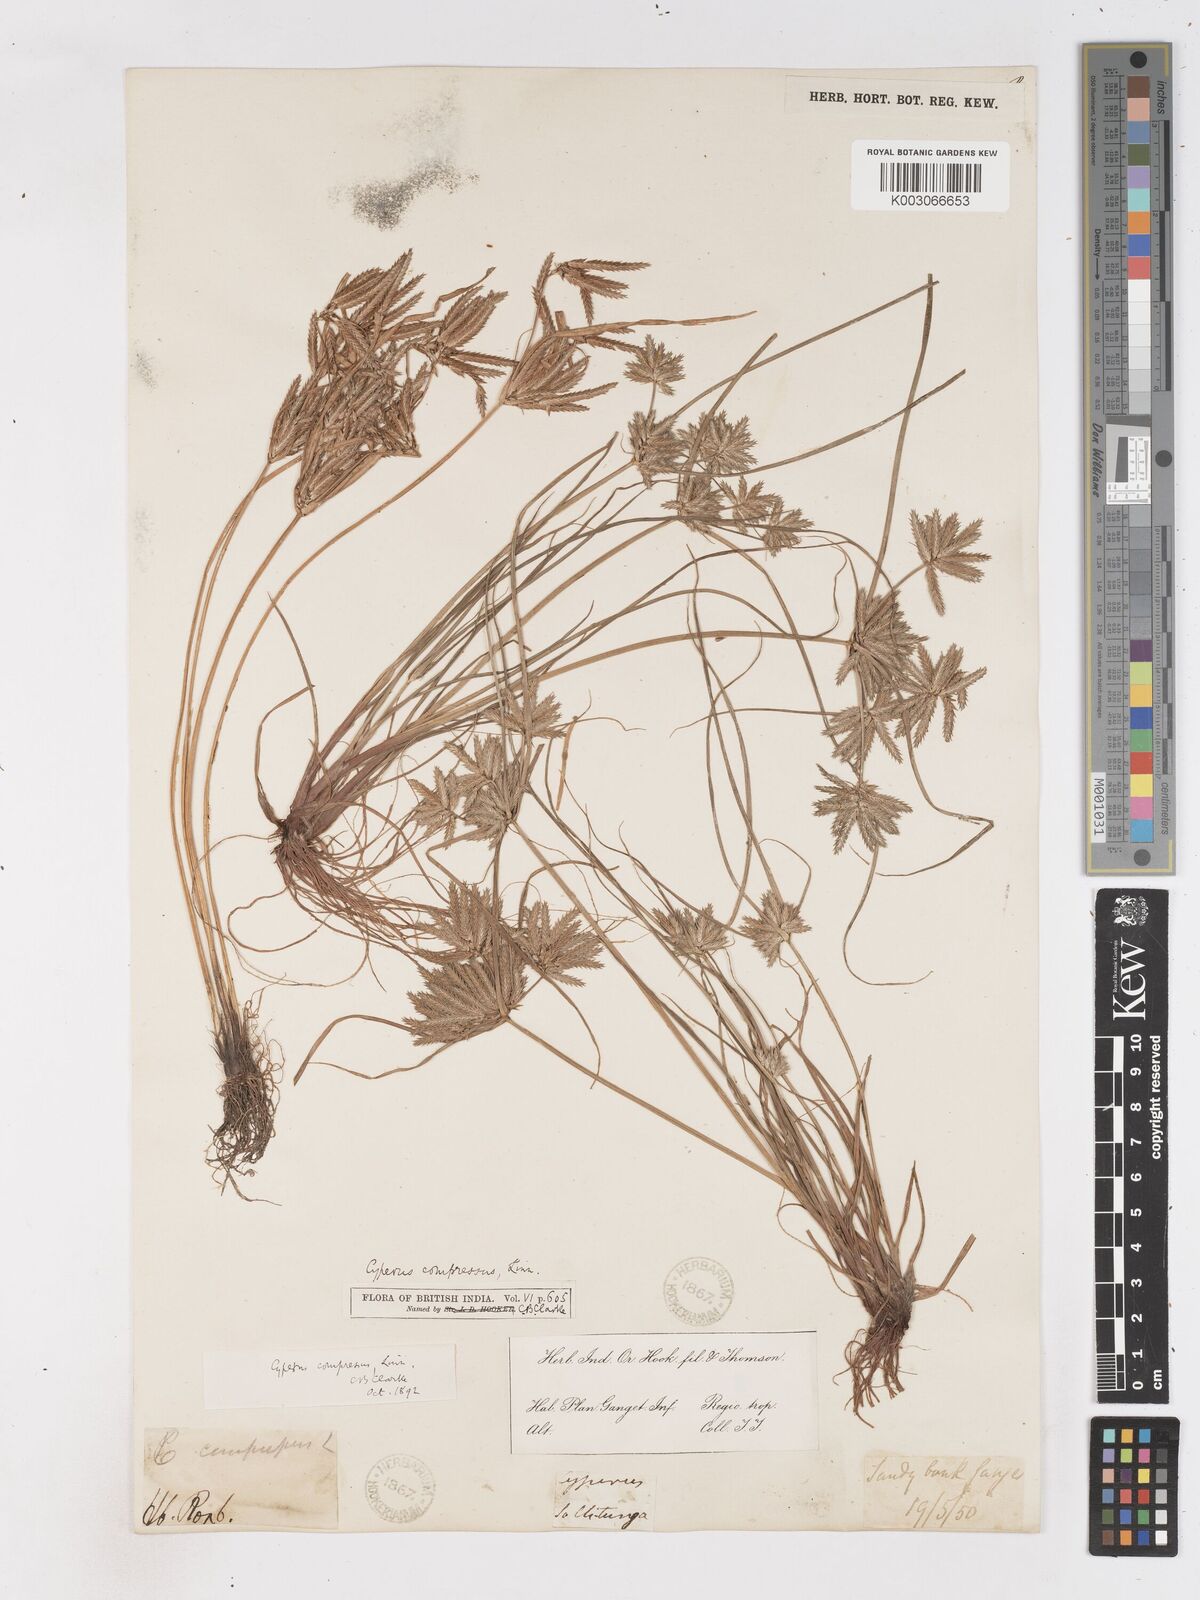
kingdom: Plantae
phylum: Tracheophyta
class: Liliopsida
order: Poales
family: Cyperaceae
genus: Cyperus
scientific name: Cyperus compressus
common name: Poorland flatsedge
